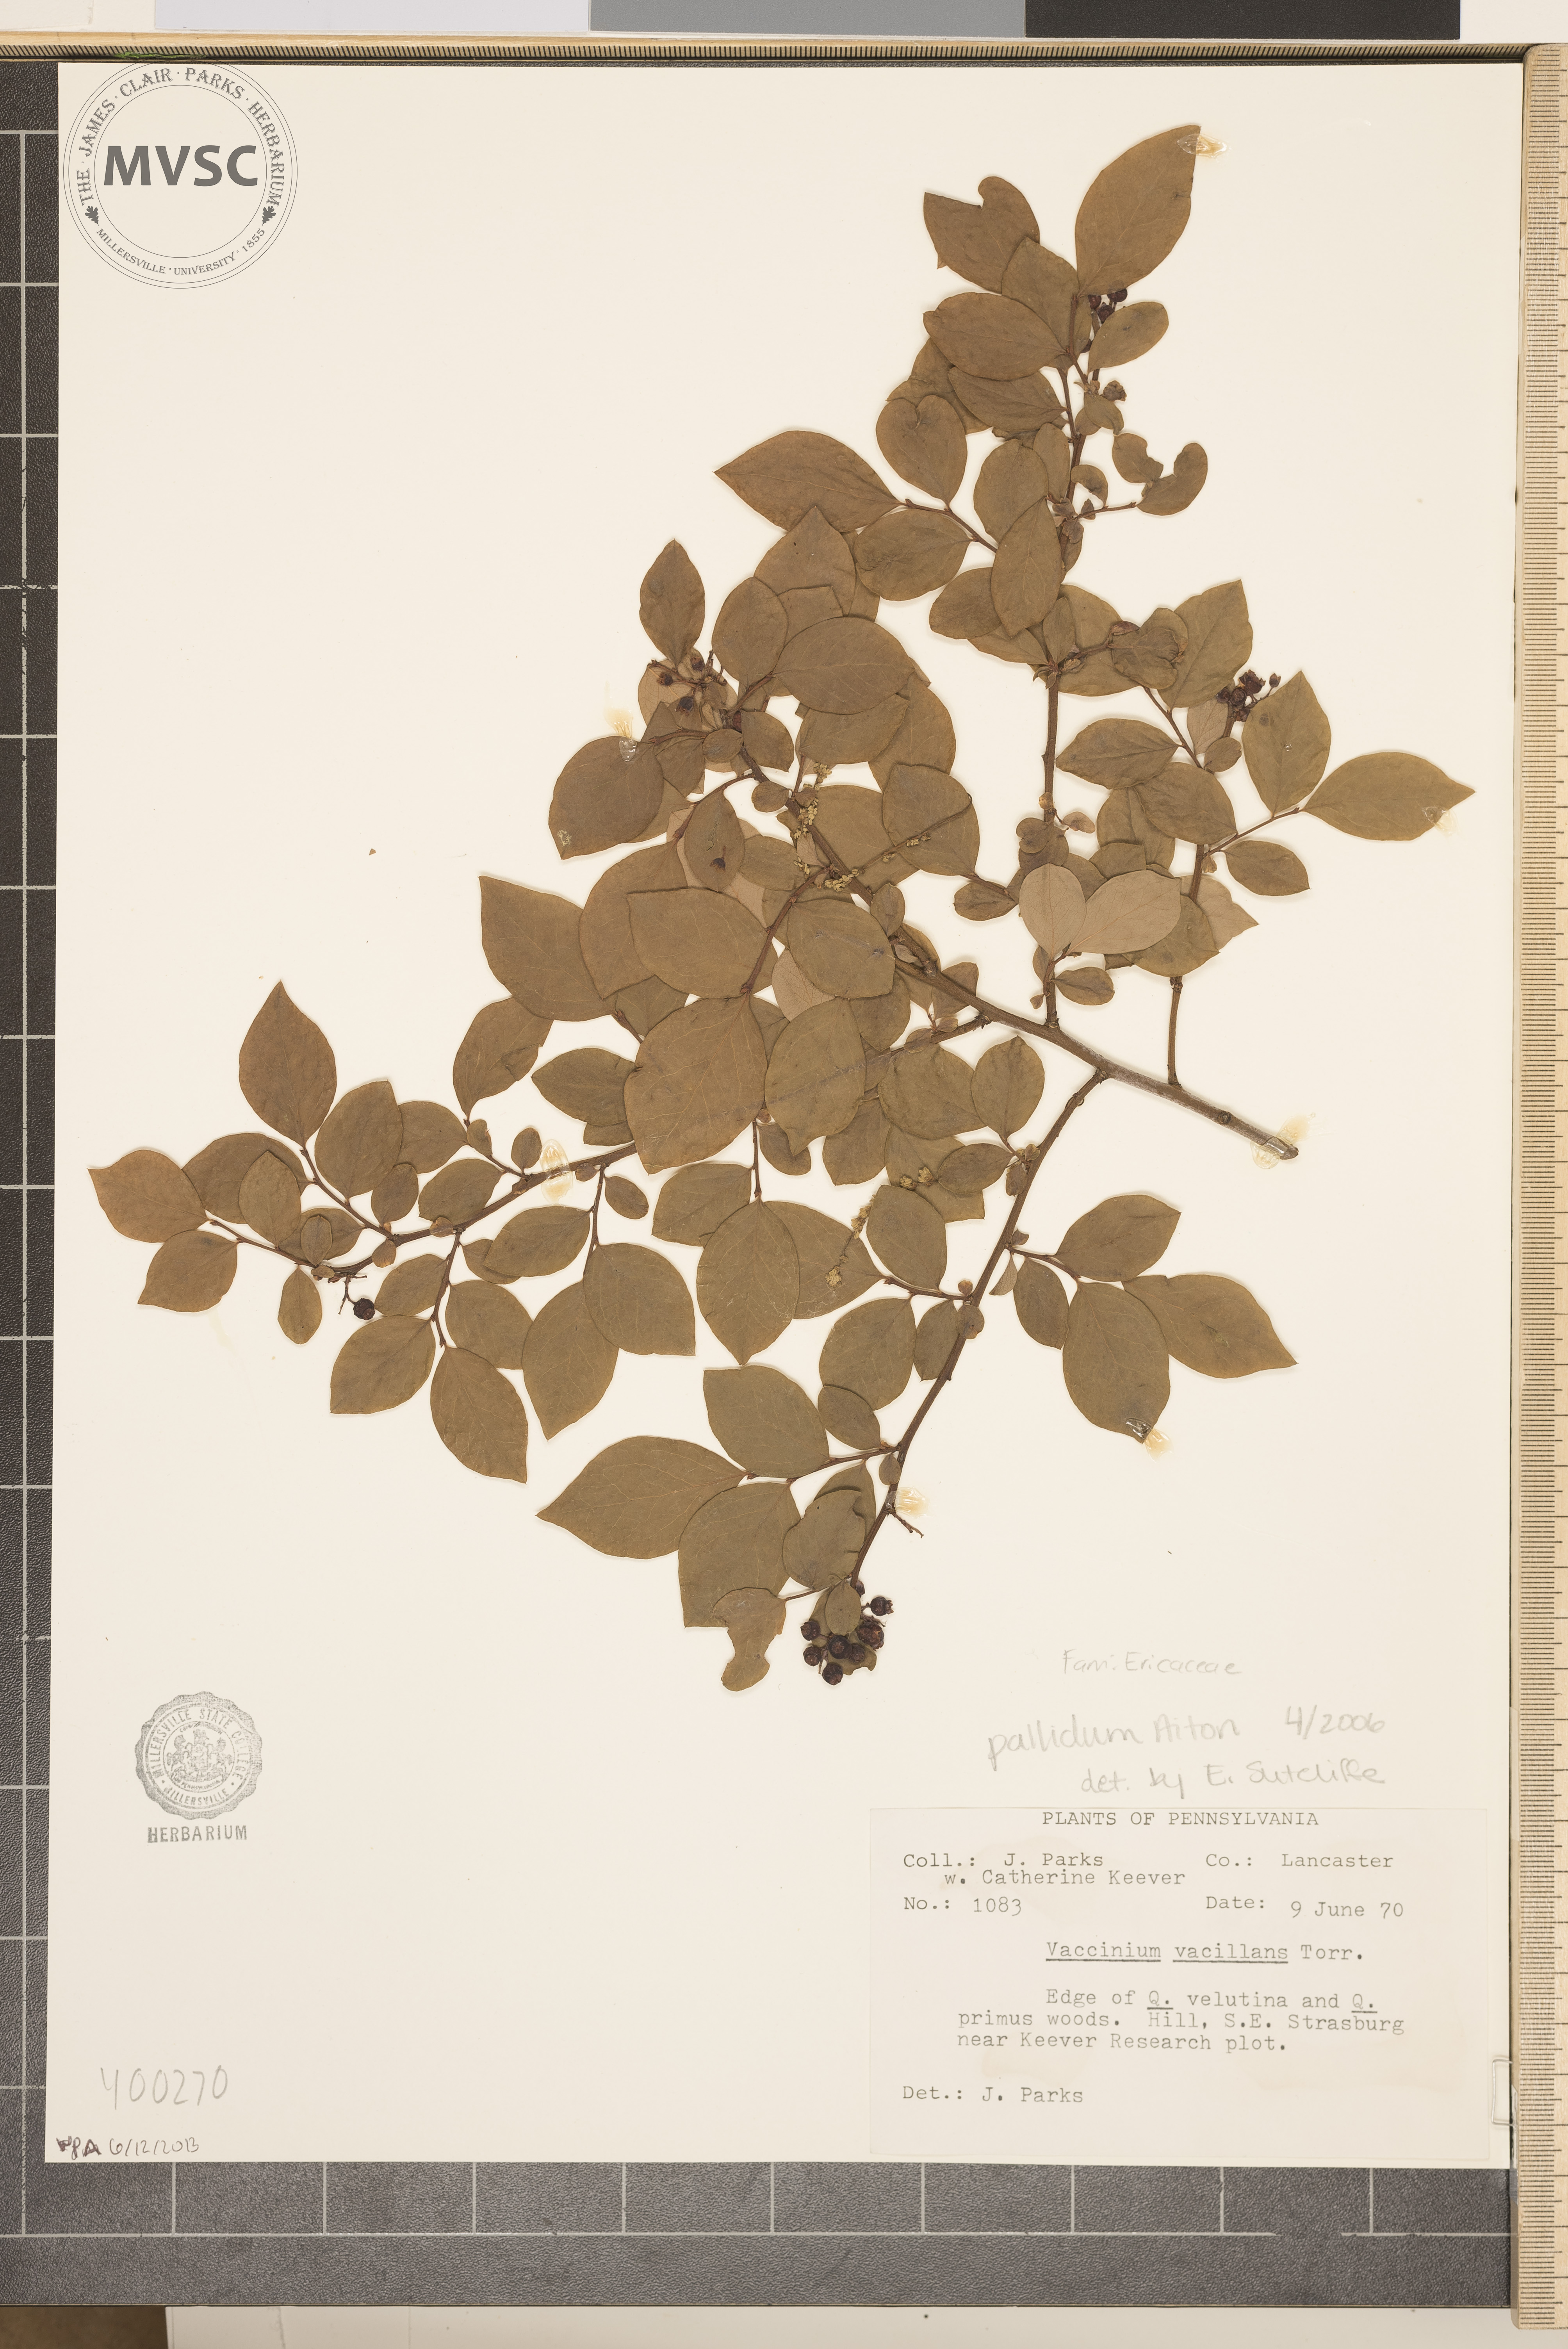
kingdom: Plantae
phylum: Tracheophyta
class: Magnoliopsida
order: Ericales
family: Ericaceae
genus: Vaccinium
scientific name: Vaccinium pallidum
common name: blueberry
